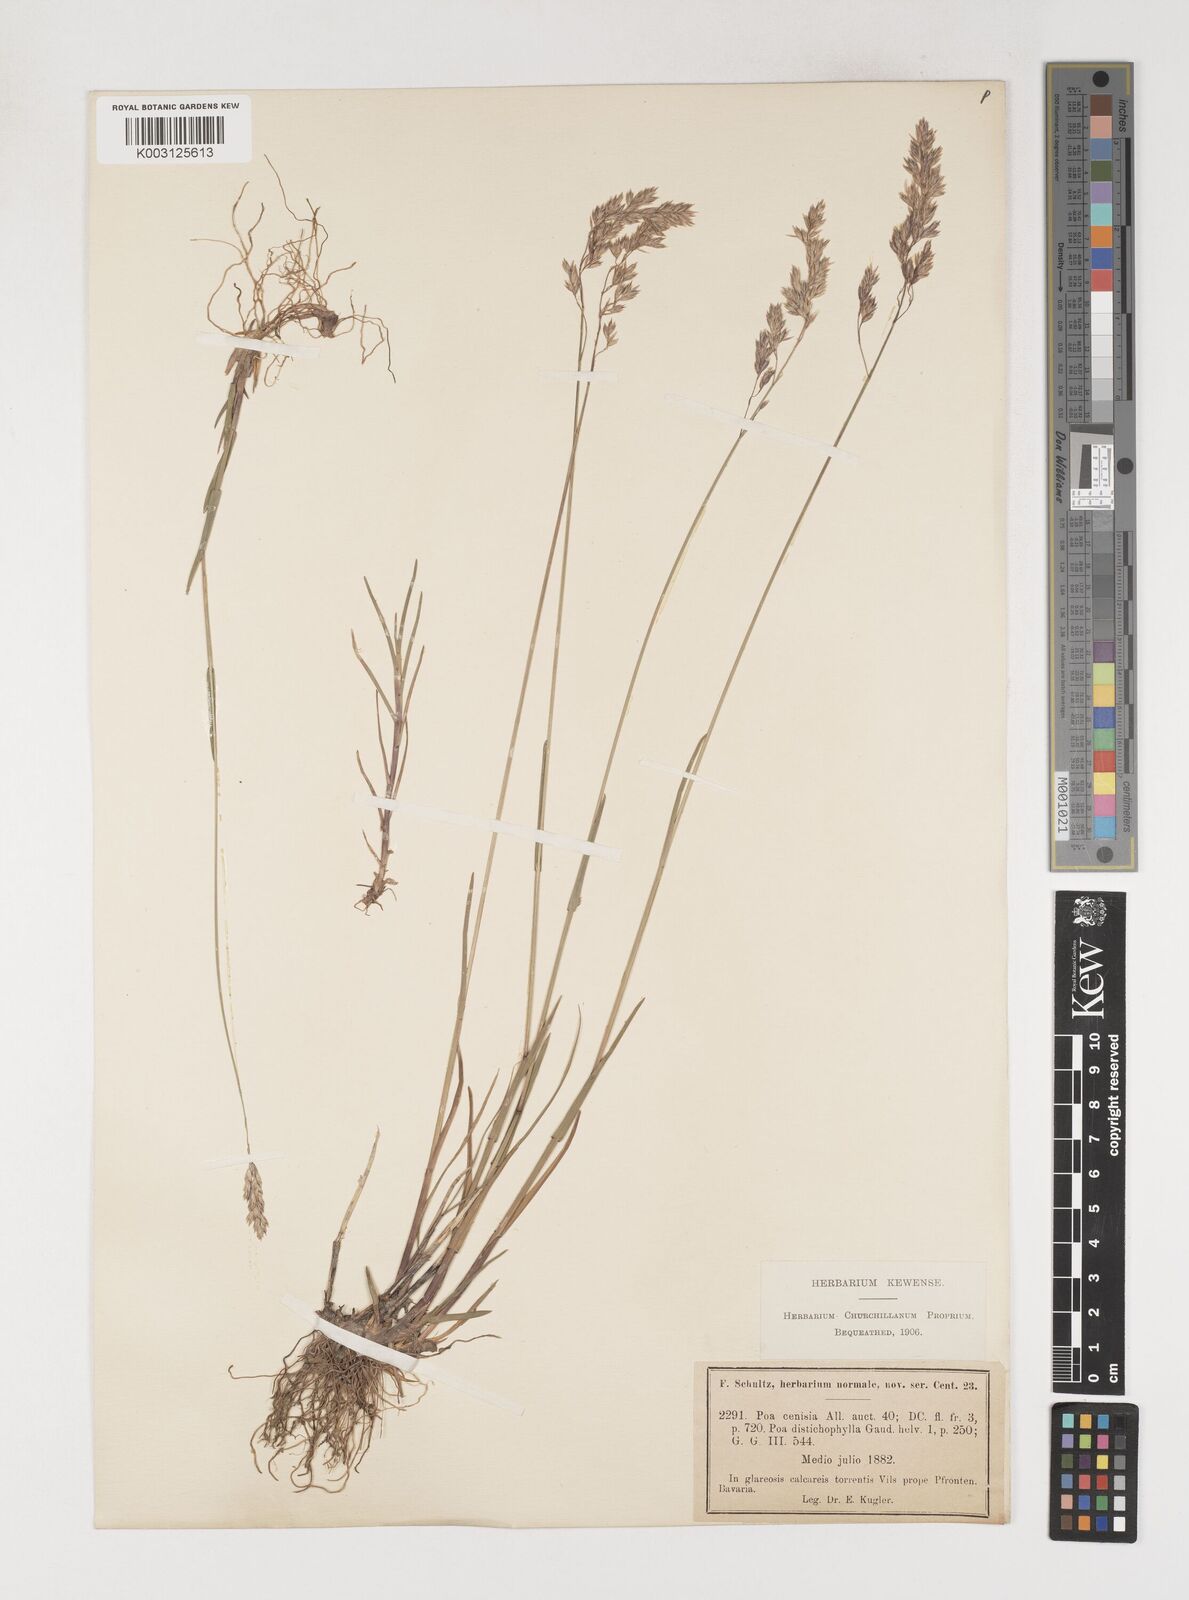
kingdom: Plantae
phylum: Tracheophyta
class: Liliopsida
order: Poales
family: Poaceae
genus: Poa
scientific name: Poa cenisia
